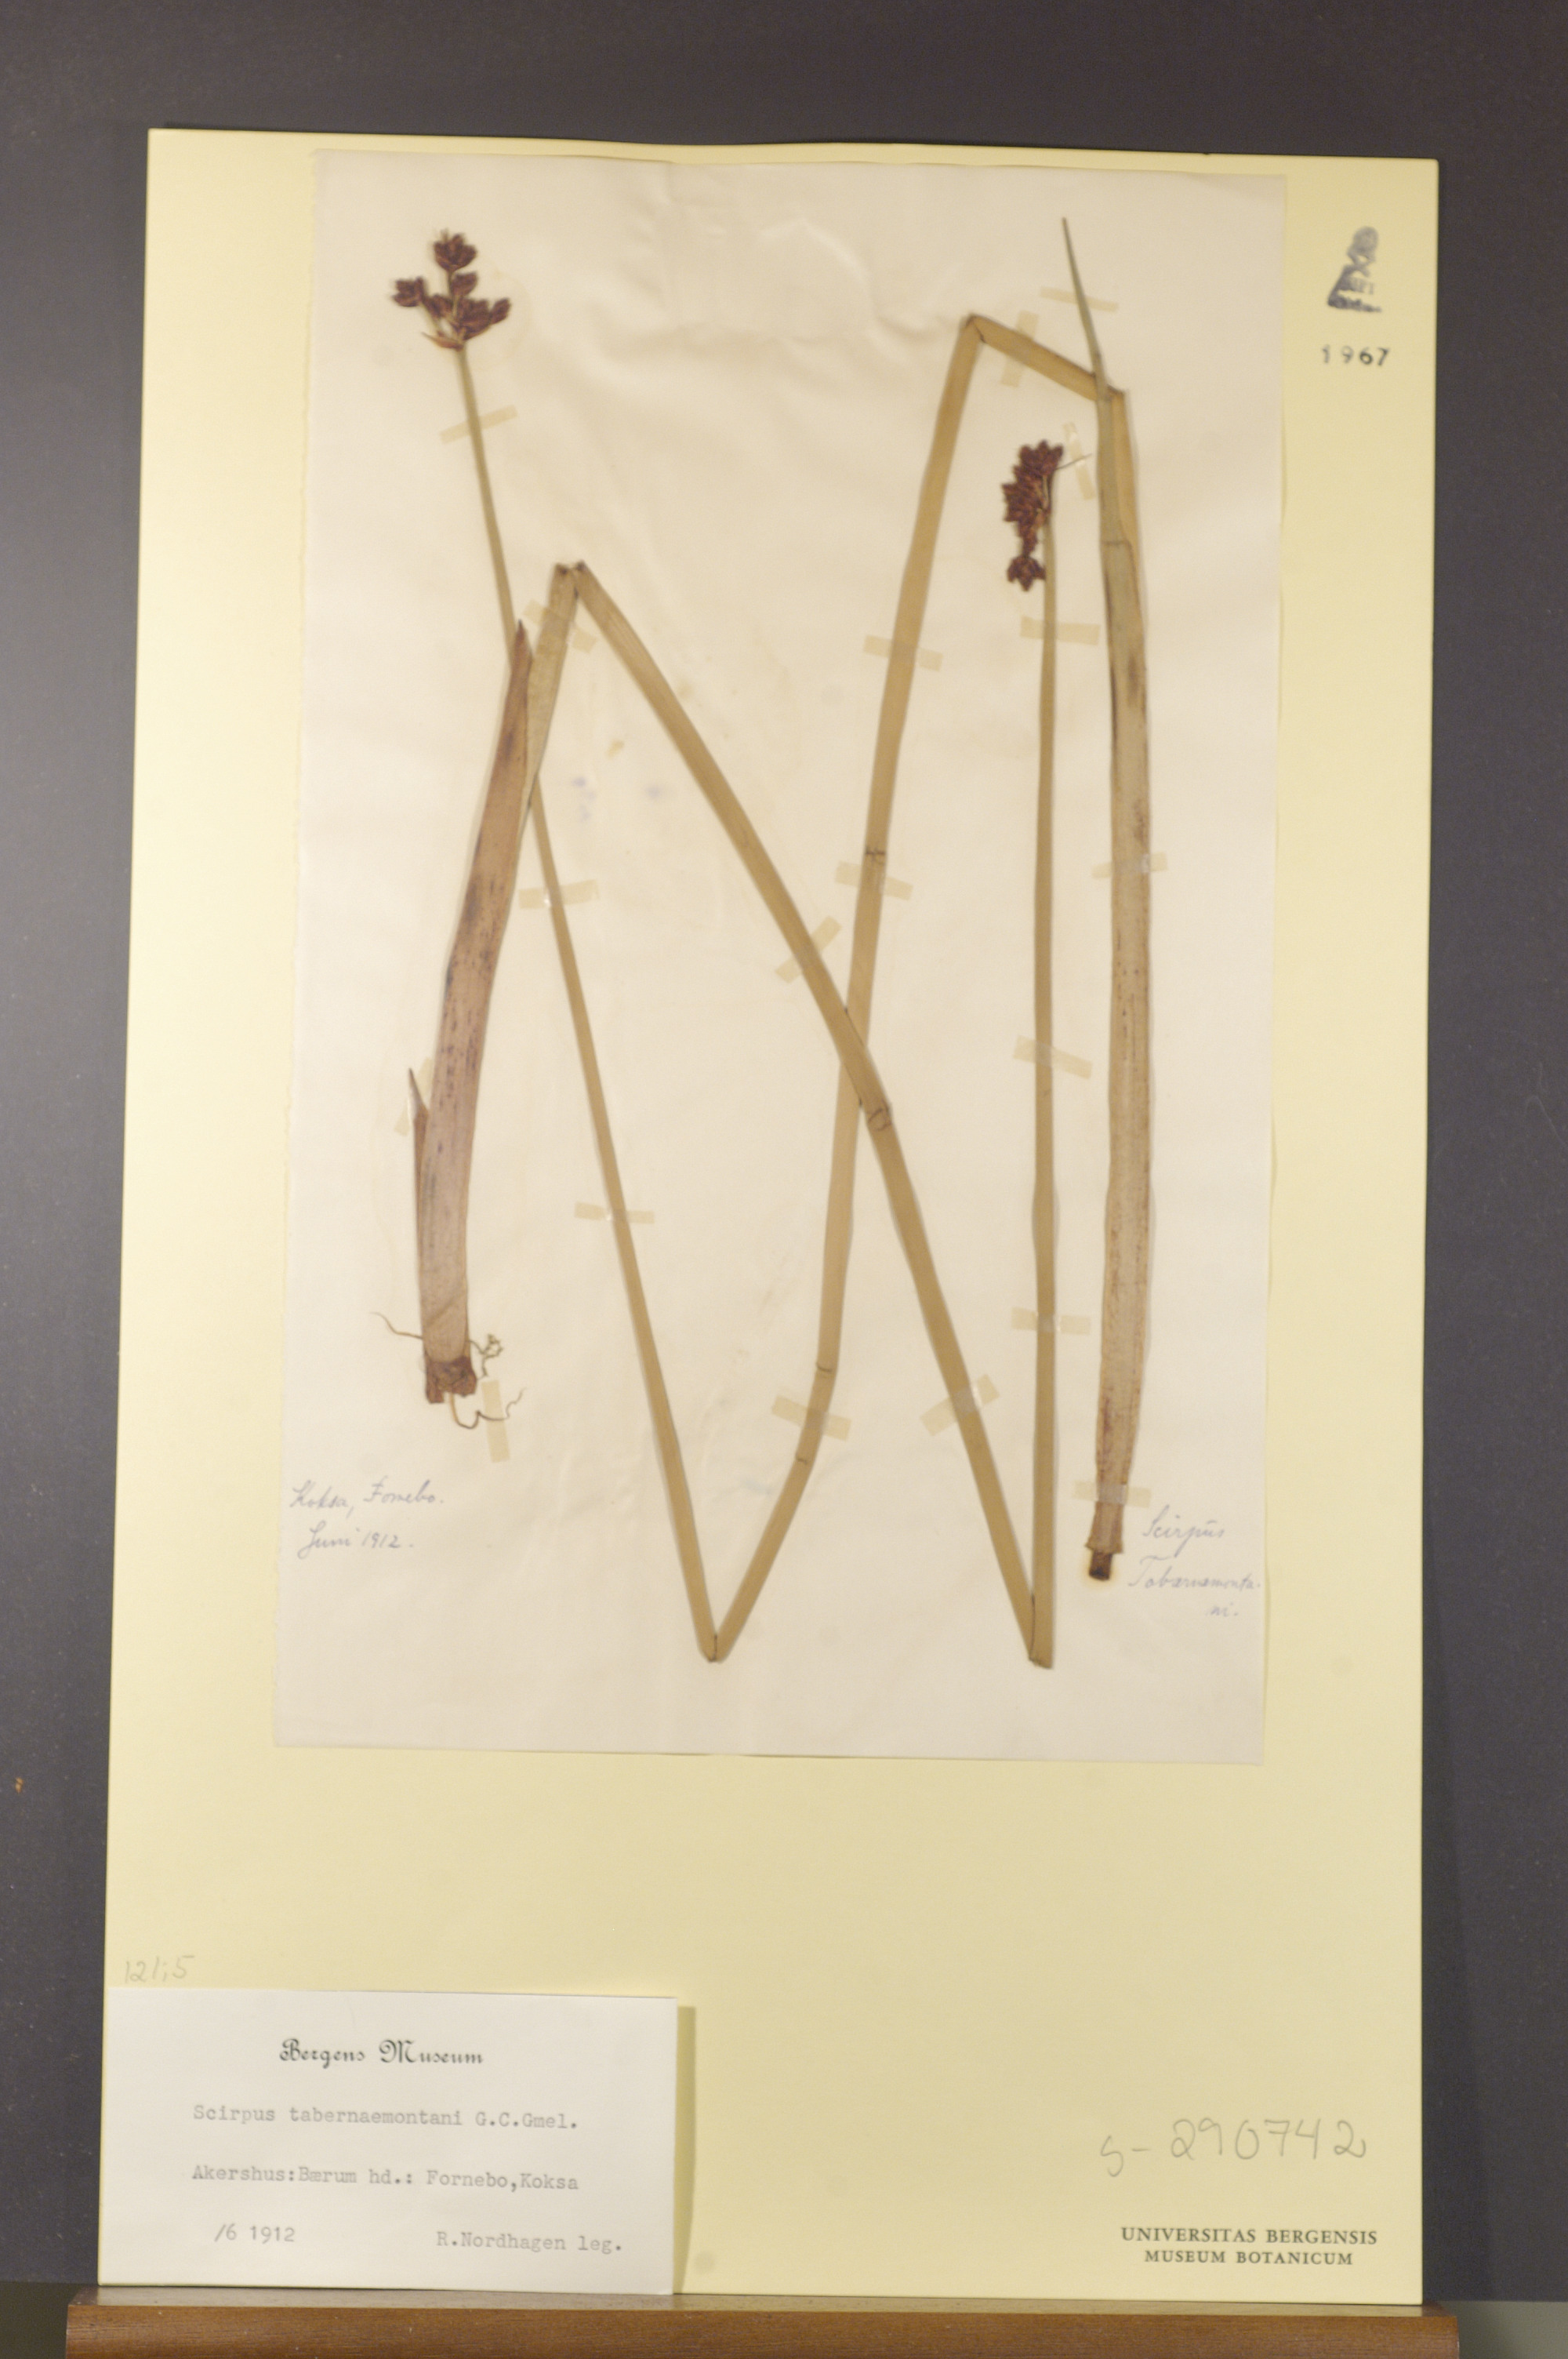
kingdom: Plantae
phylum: Tracheophyta
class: Liliopsida
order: Poales
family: Cyperaceae
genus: Schoenoplectus
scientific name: Schoenoplectus tabernaemontani
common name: Grey club-rush
